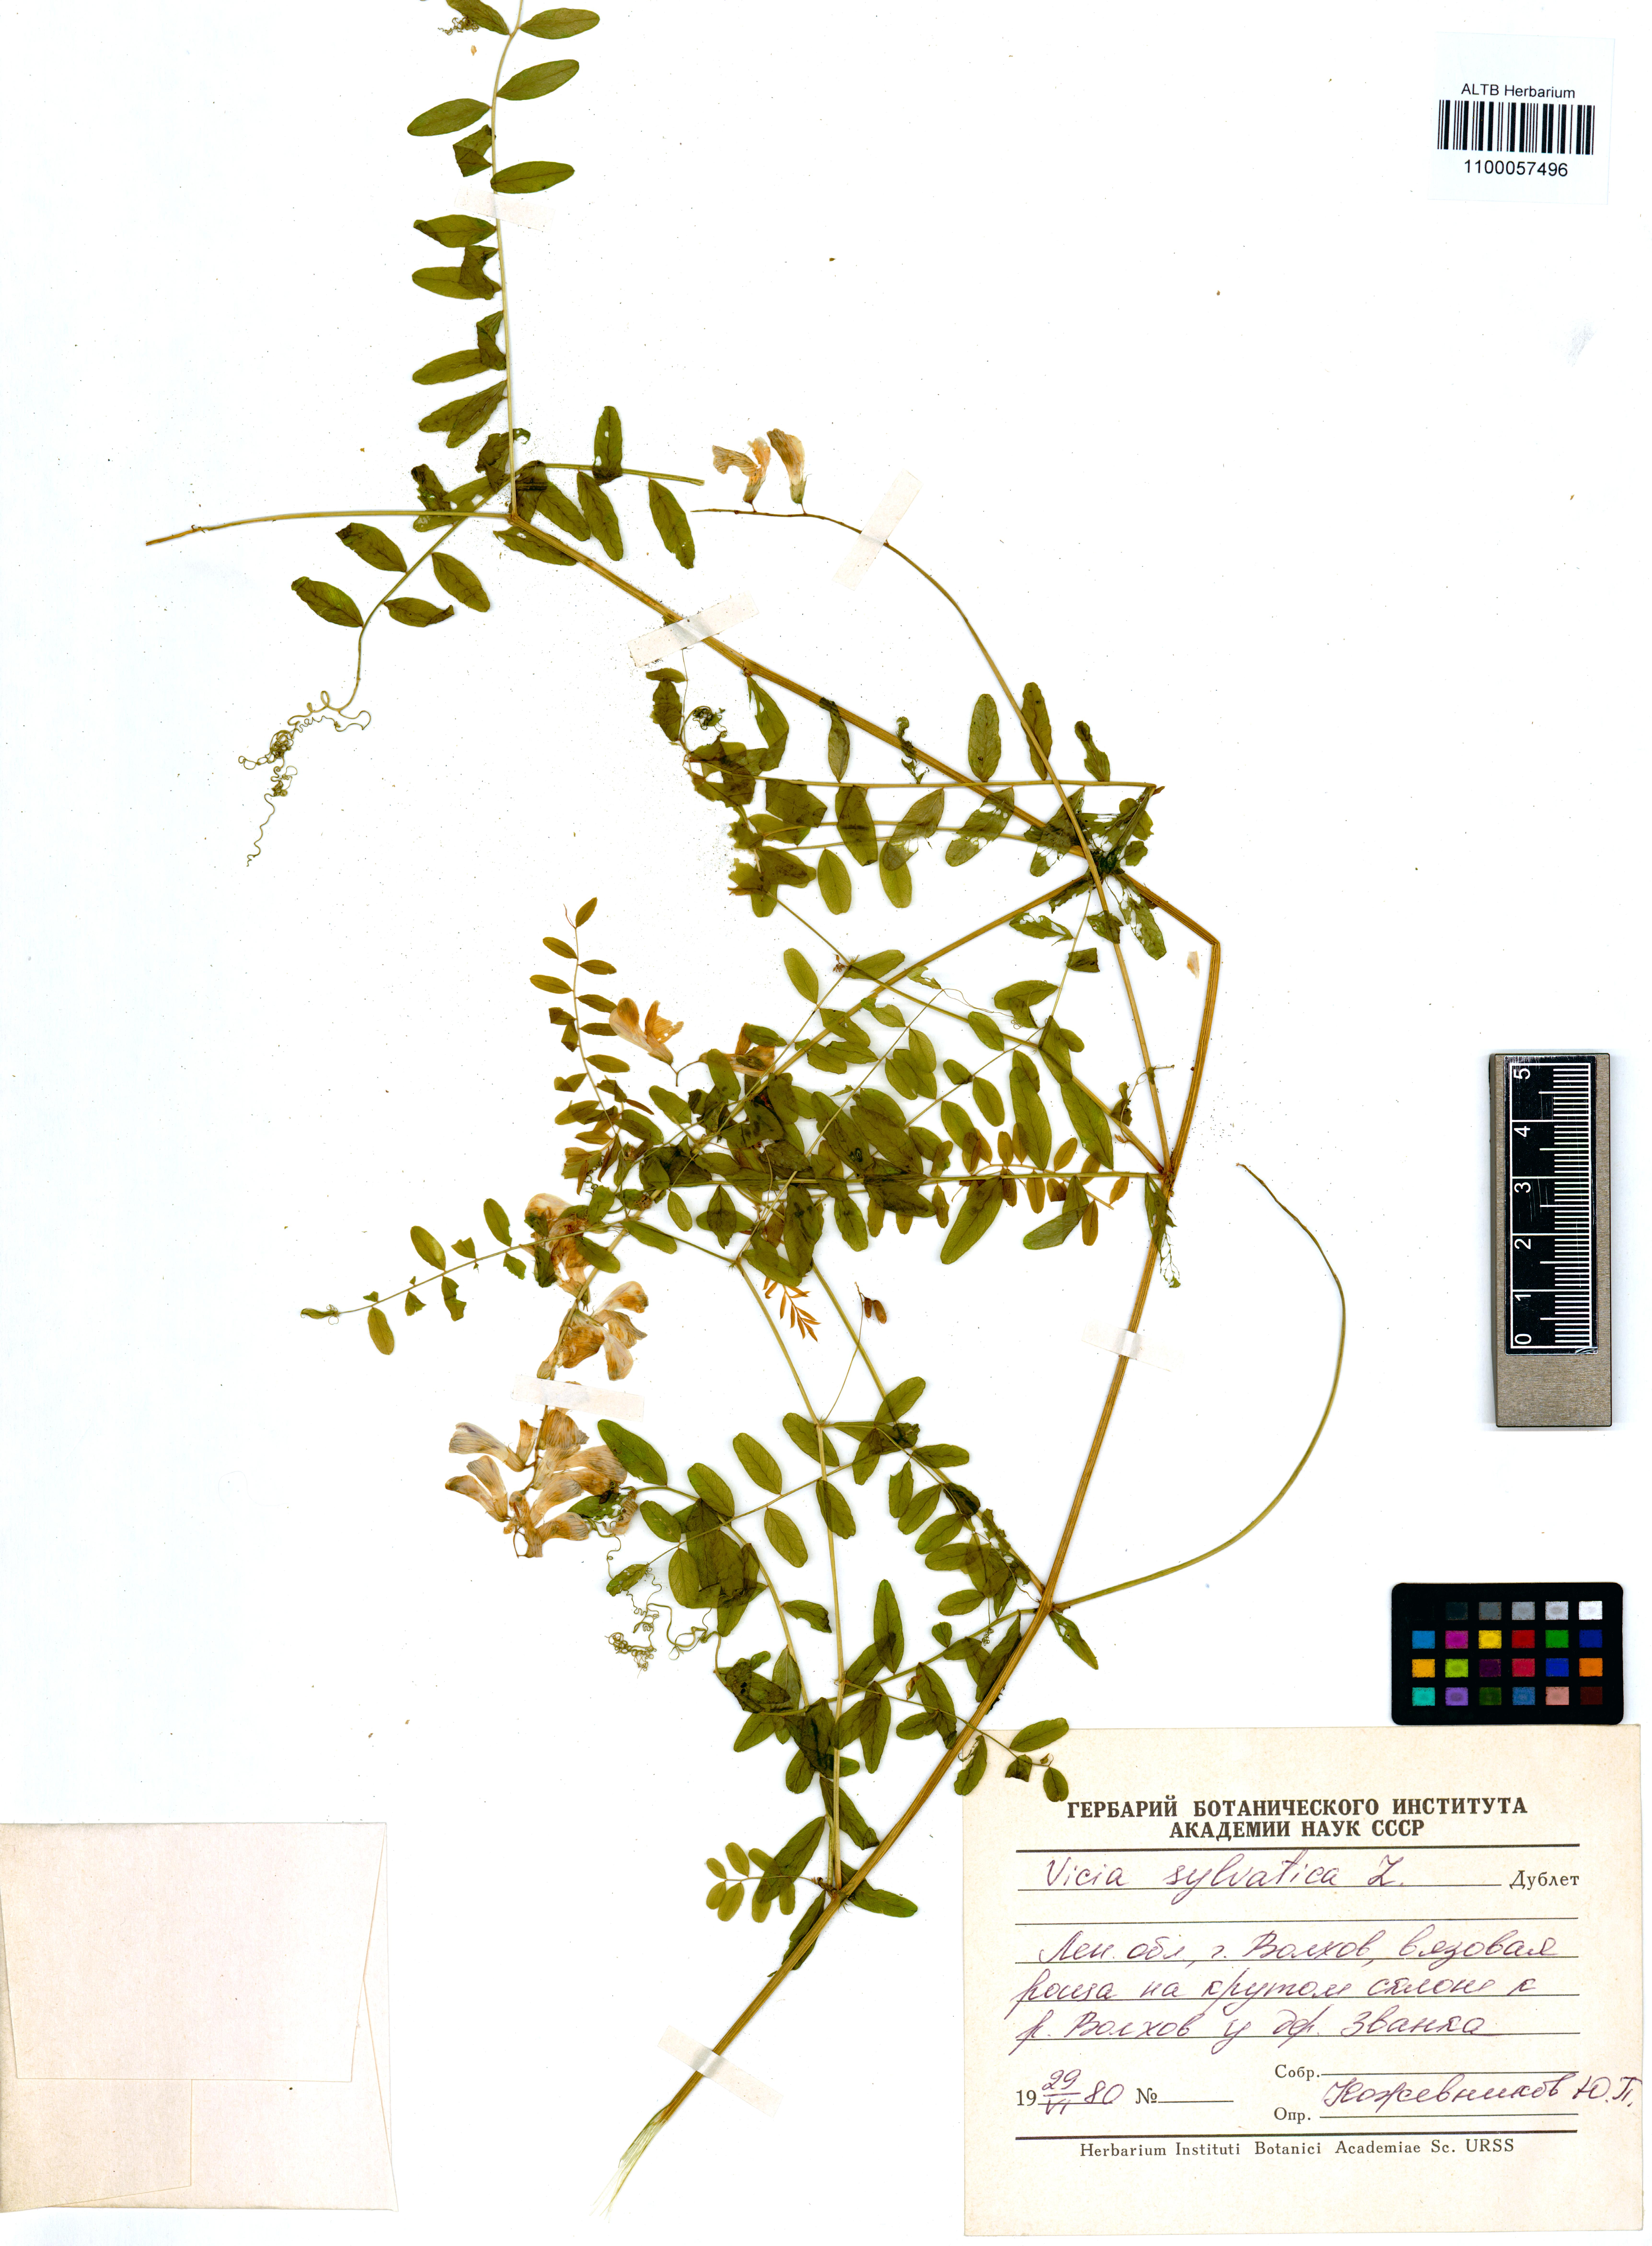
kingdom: Plantae
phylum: Tracheophyta
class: Magnoliopsida
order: Fabales
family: Fabaceae
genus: Vicia
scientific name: Vicia sylvatica
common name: Wood vetch
